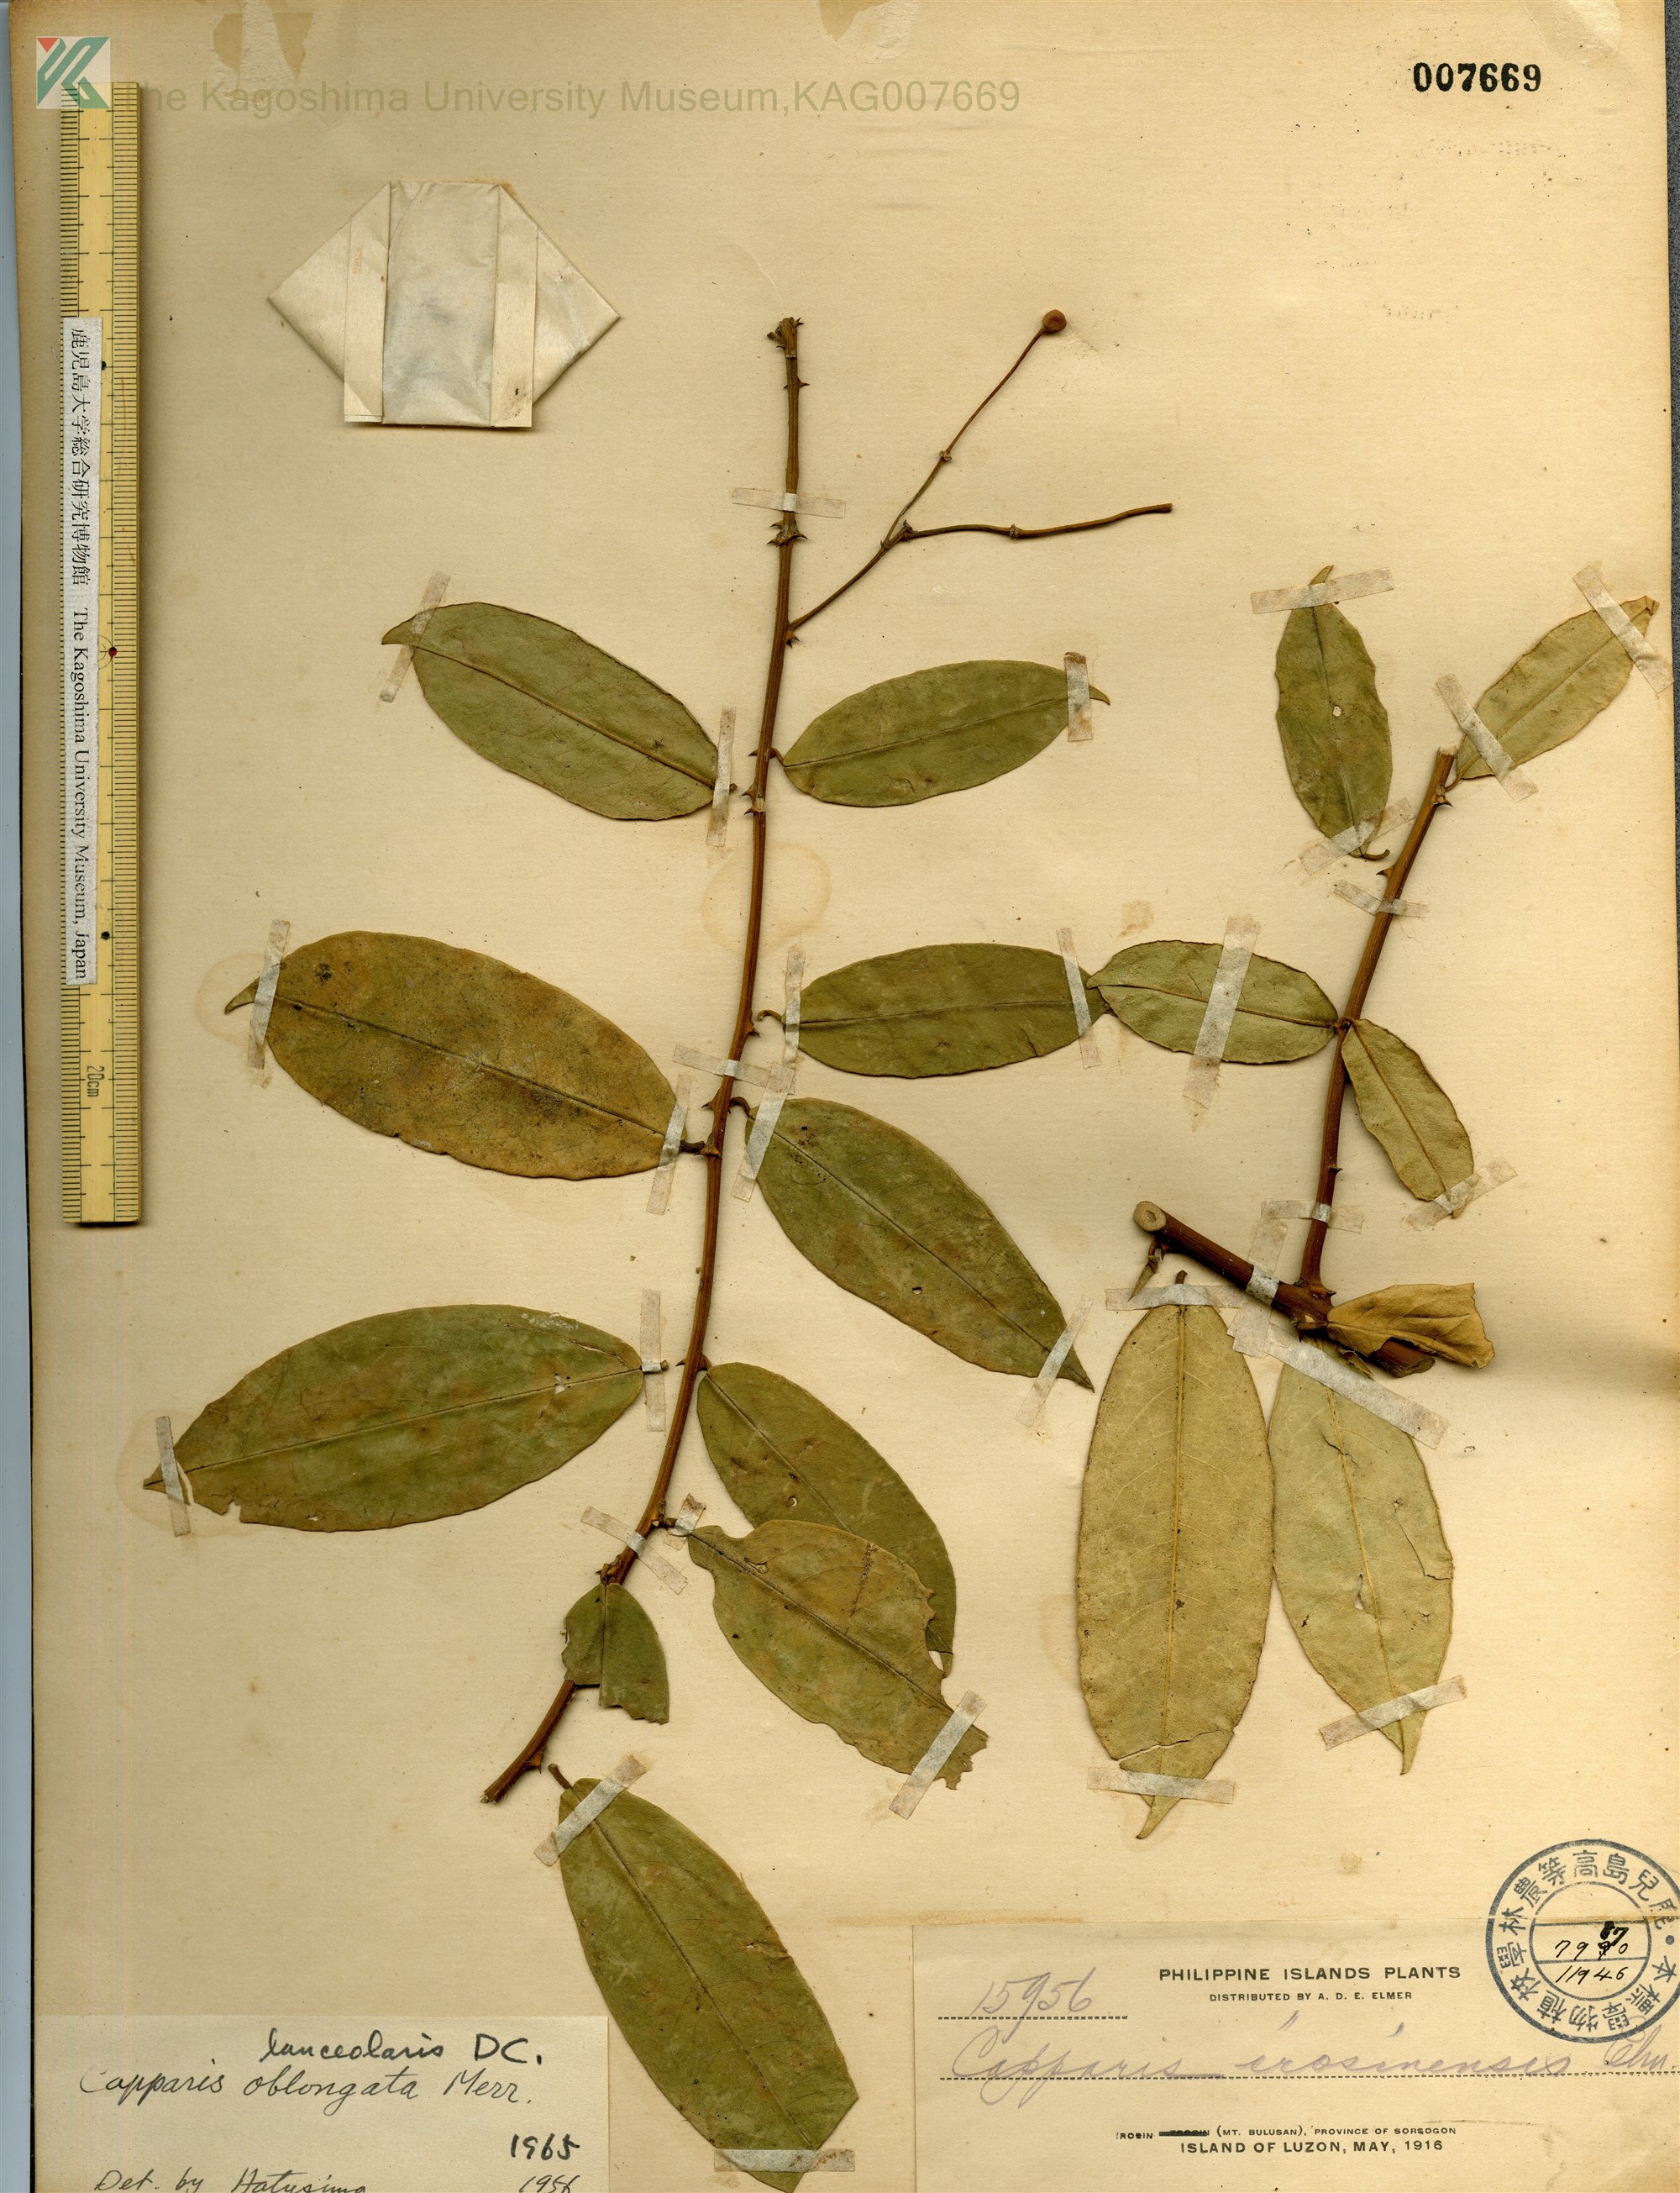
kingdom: Plantae
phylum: Tracheophyta
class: Magnoliopsida
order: Brassicales
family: Capparaceae
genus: Capparis
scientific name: Capparis lanceolaris
